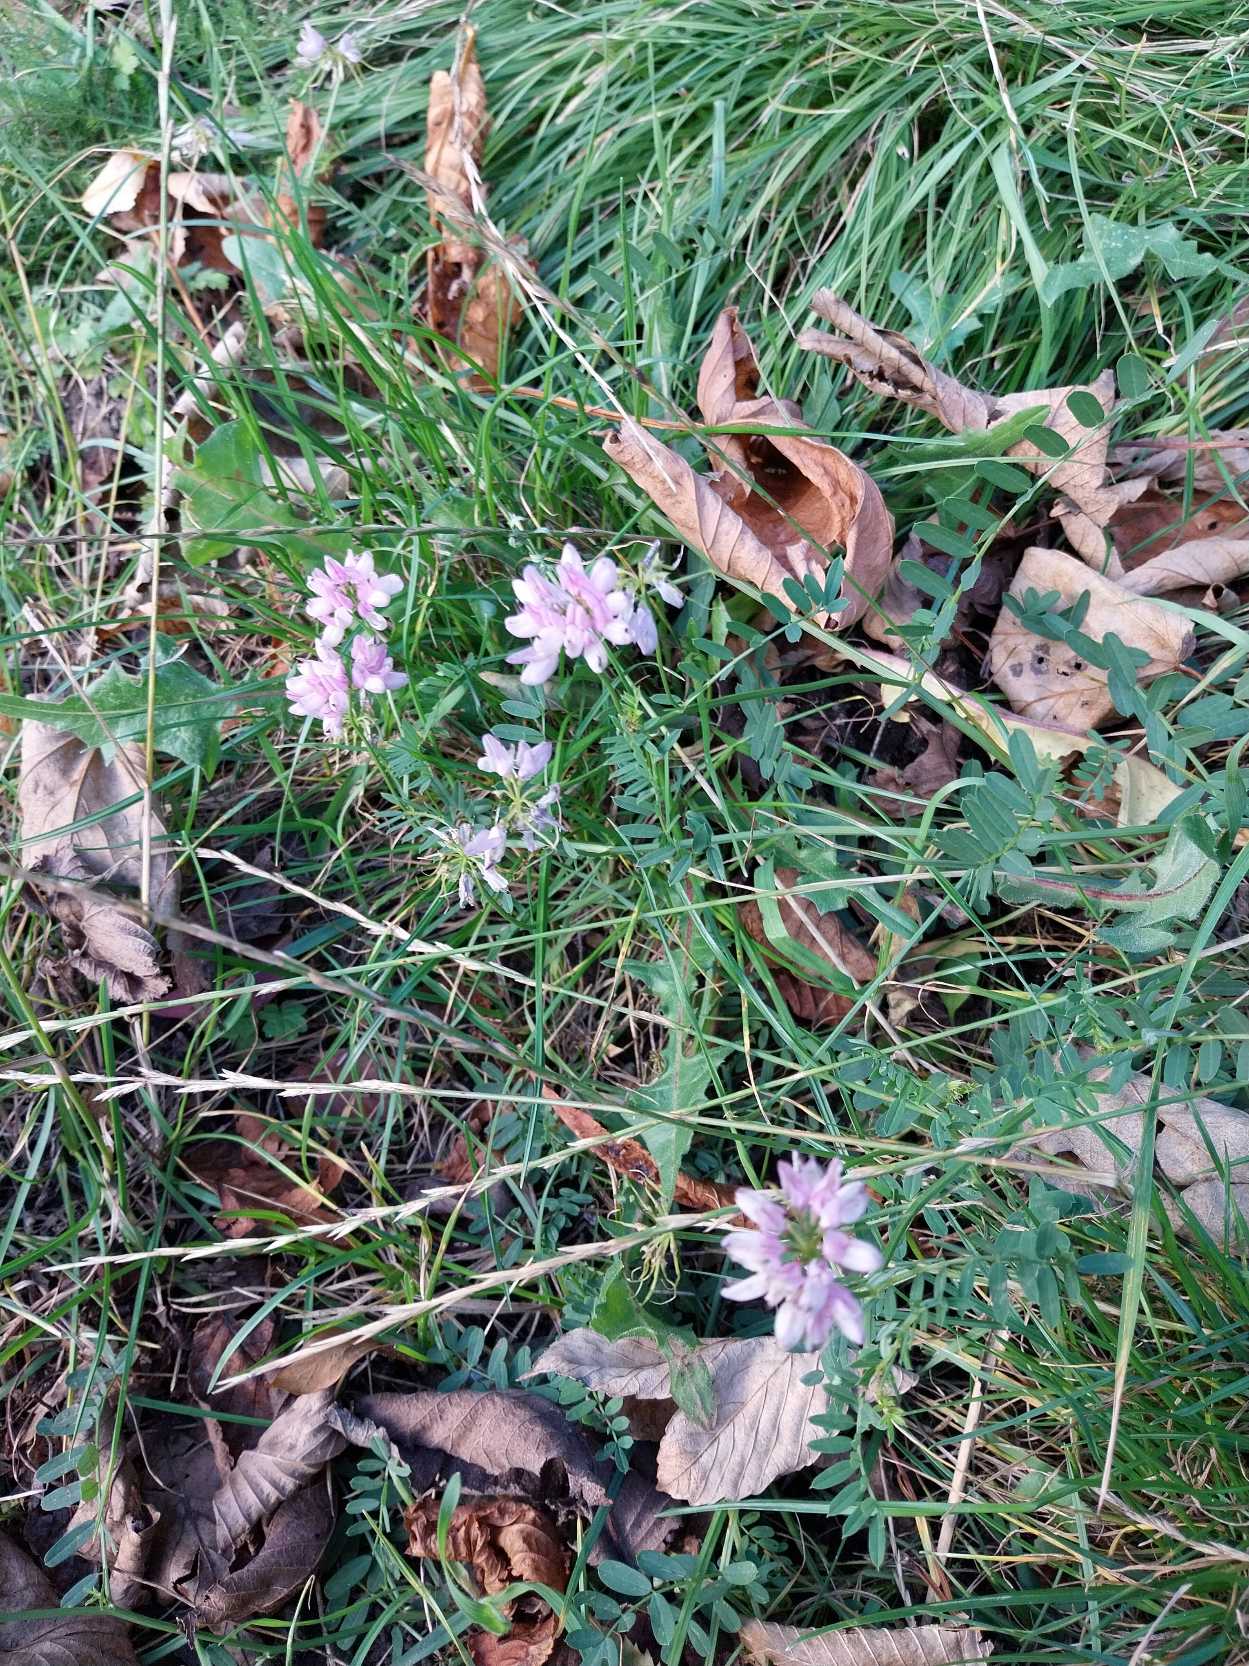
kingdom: Plantae
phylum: Tracheophyta
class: Magnoliopsida
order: Fabales
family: Fabaceae
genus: Coronilla
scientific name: Coronilla varia
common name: Giftig kronvikke
